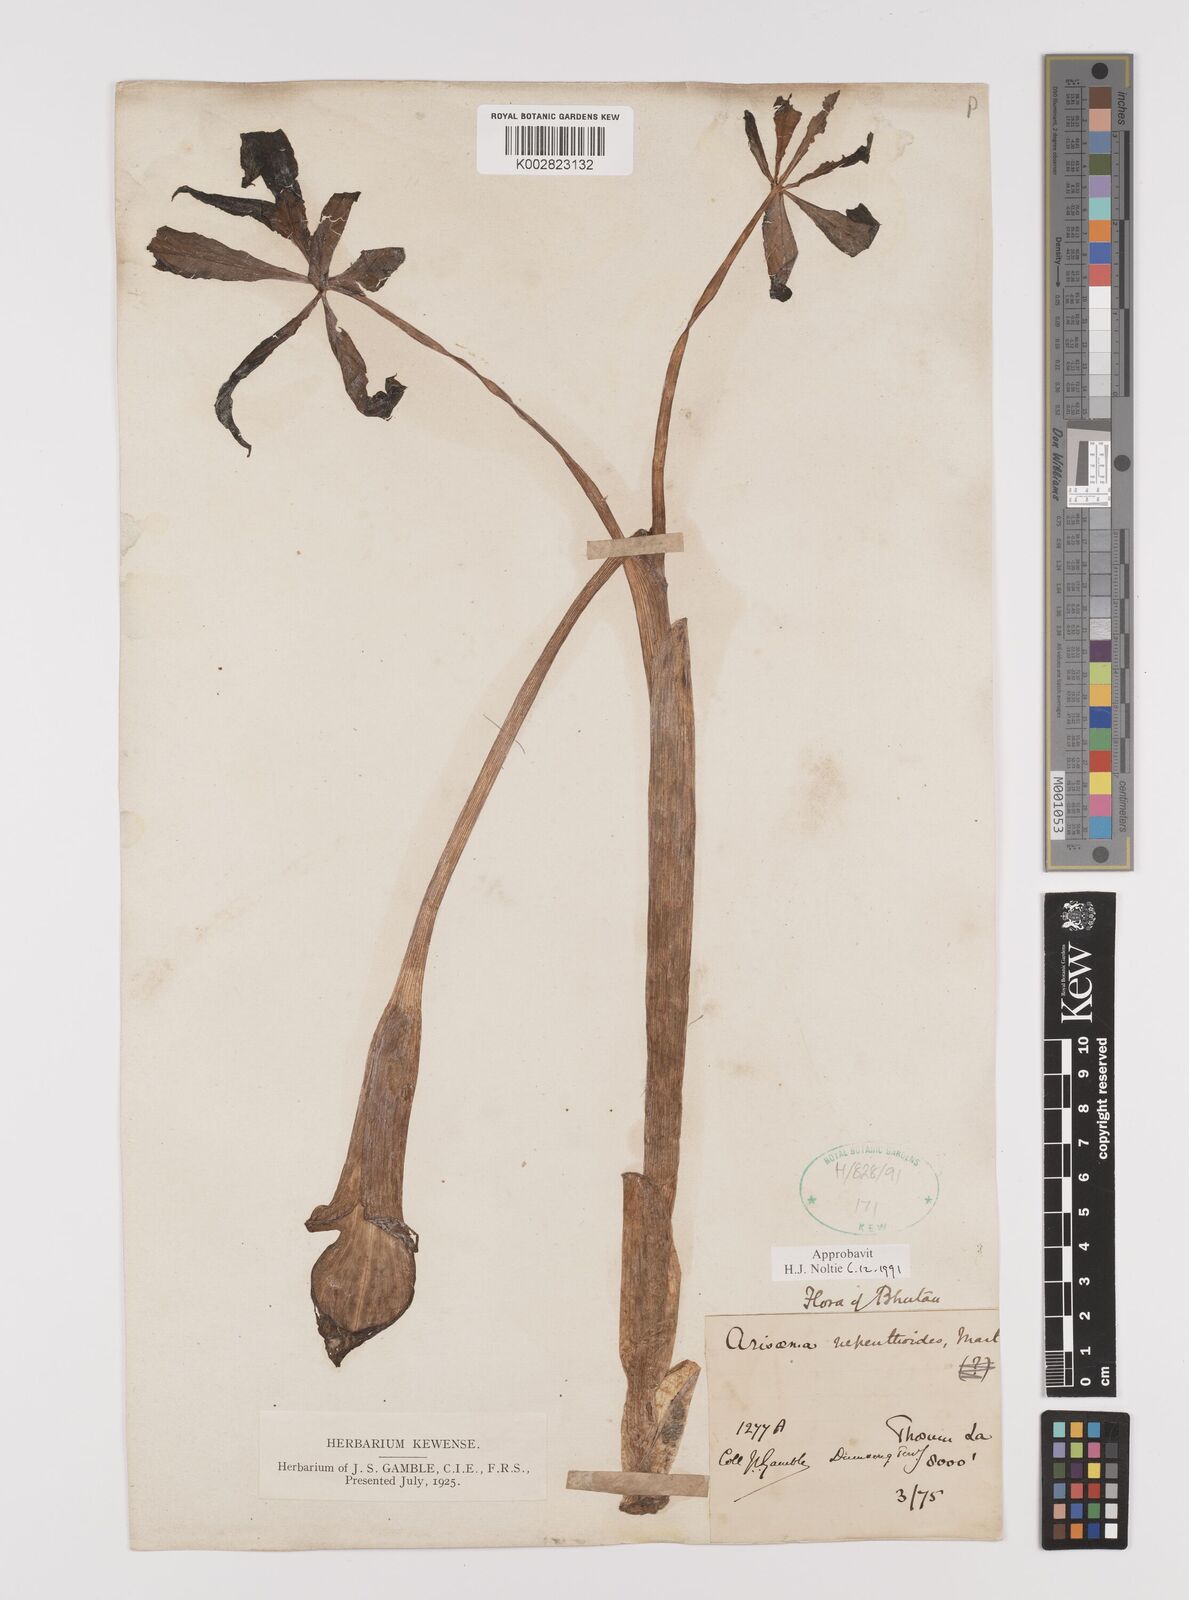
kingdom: Plantae
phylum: Tracheophyta
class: Liliopsida
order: Alismatales
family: Araceae
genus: Arisaema
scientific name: Arisaema nepenthoides
